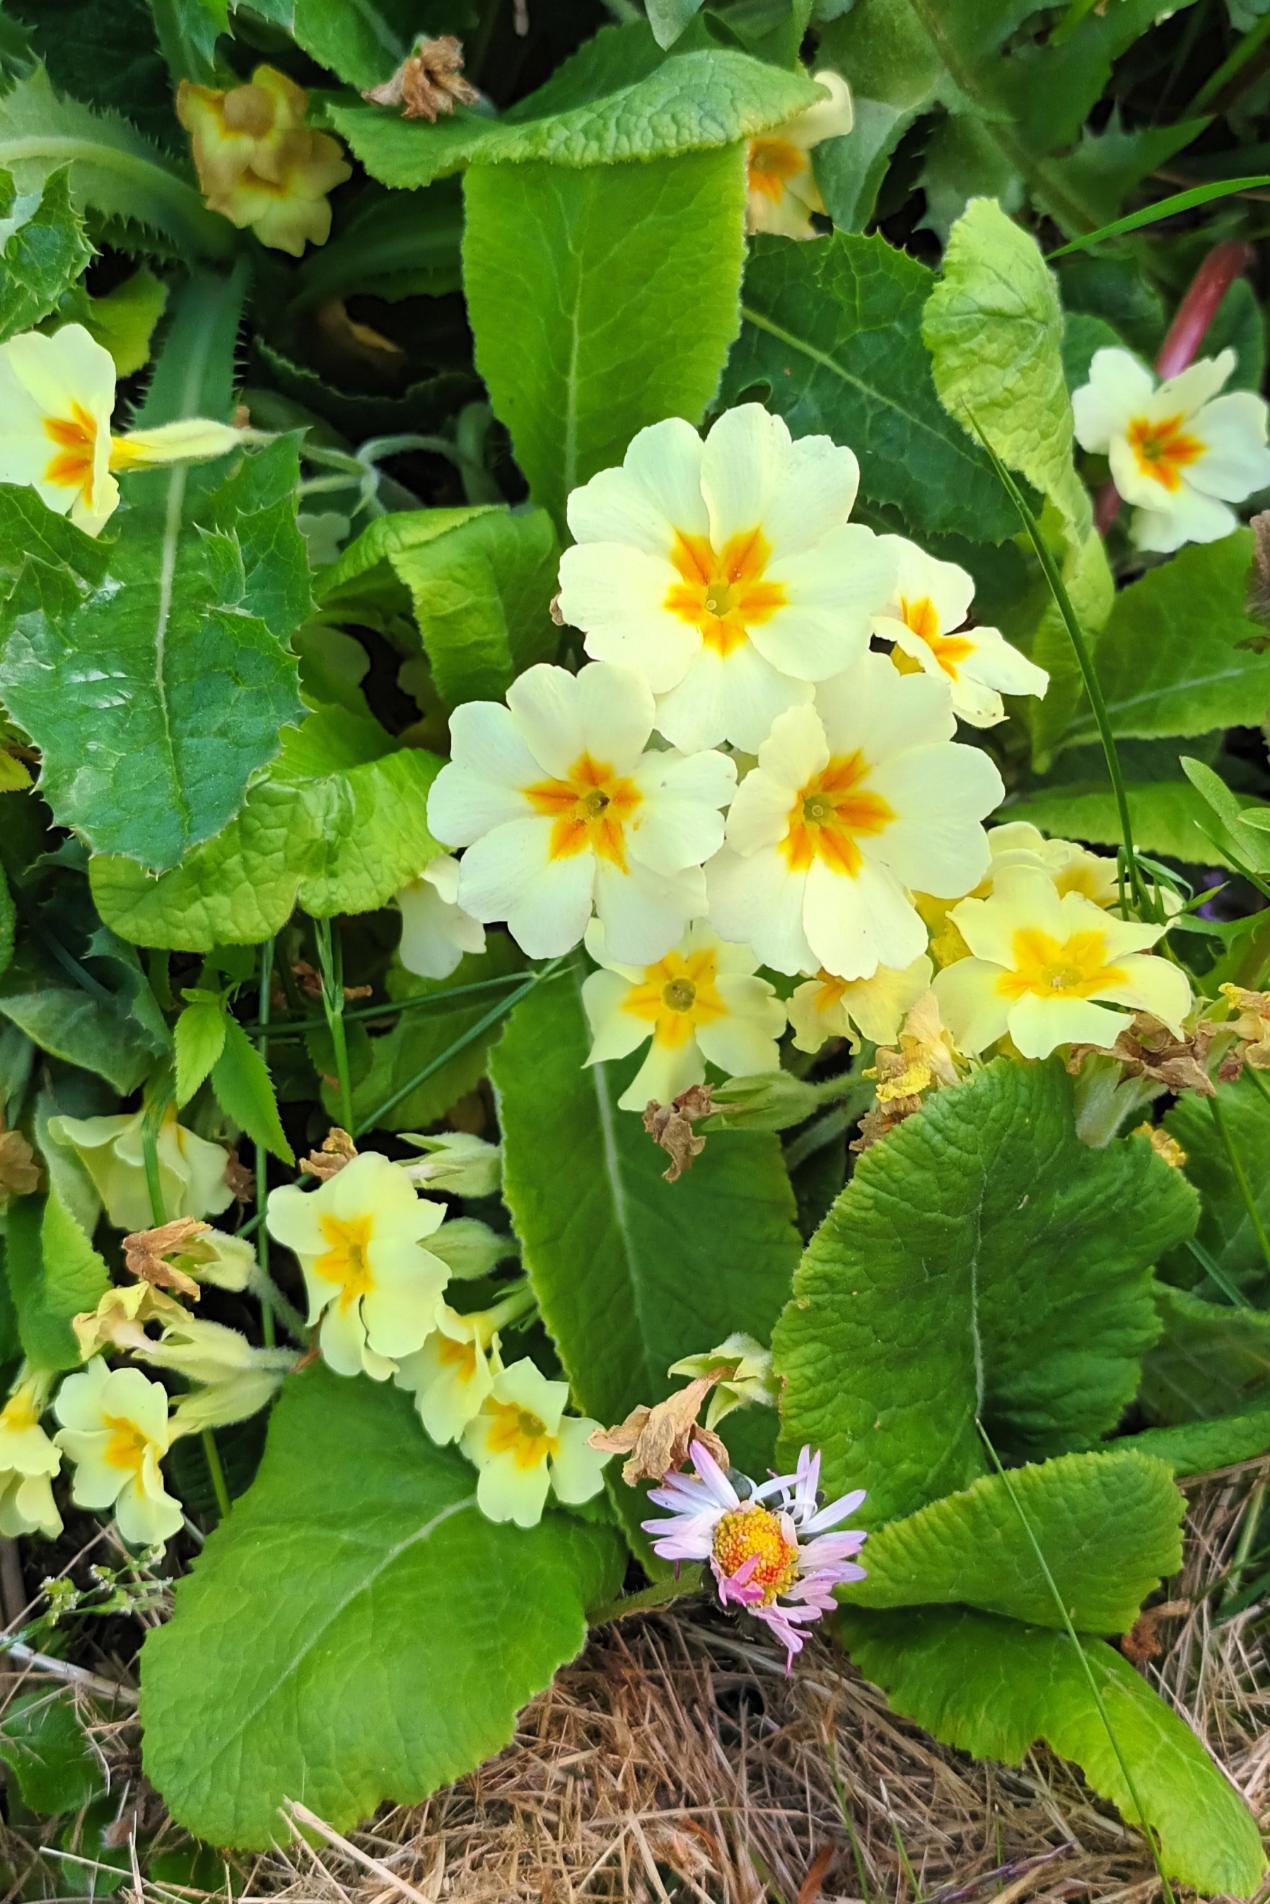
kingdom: Plantae
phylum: Tracheophyta
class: Magnoliopsida
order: Ericales
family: Primulaceae
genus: Primula
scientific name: Primula vulgaris
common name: Storblomstret kodriver
